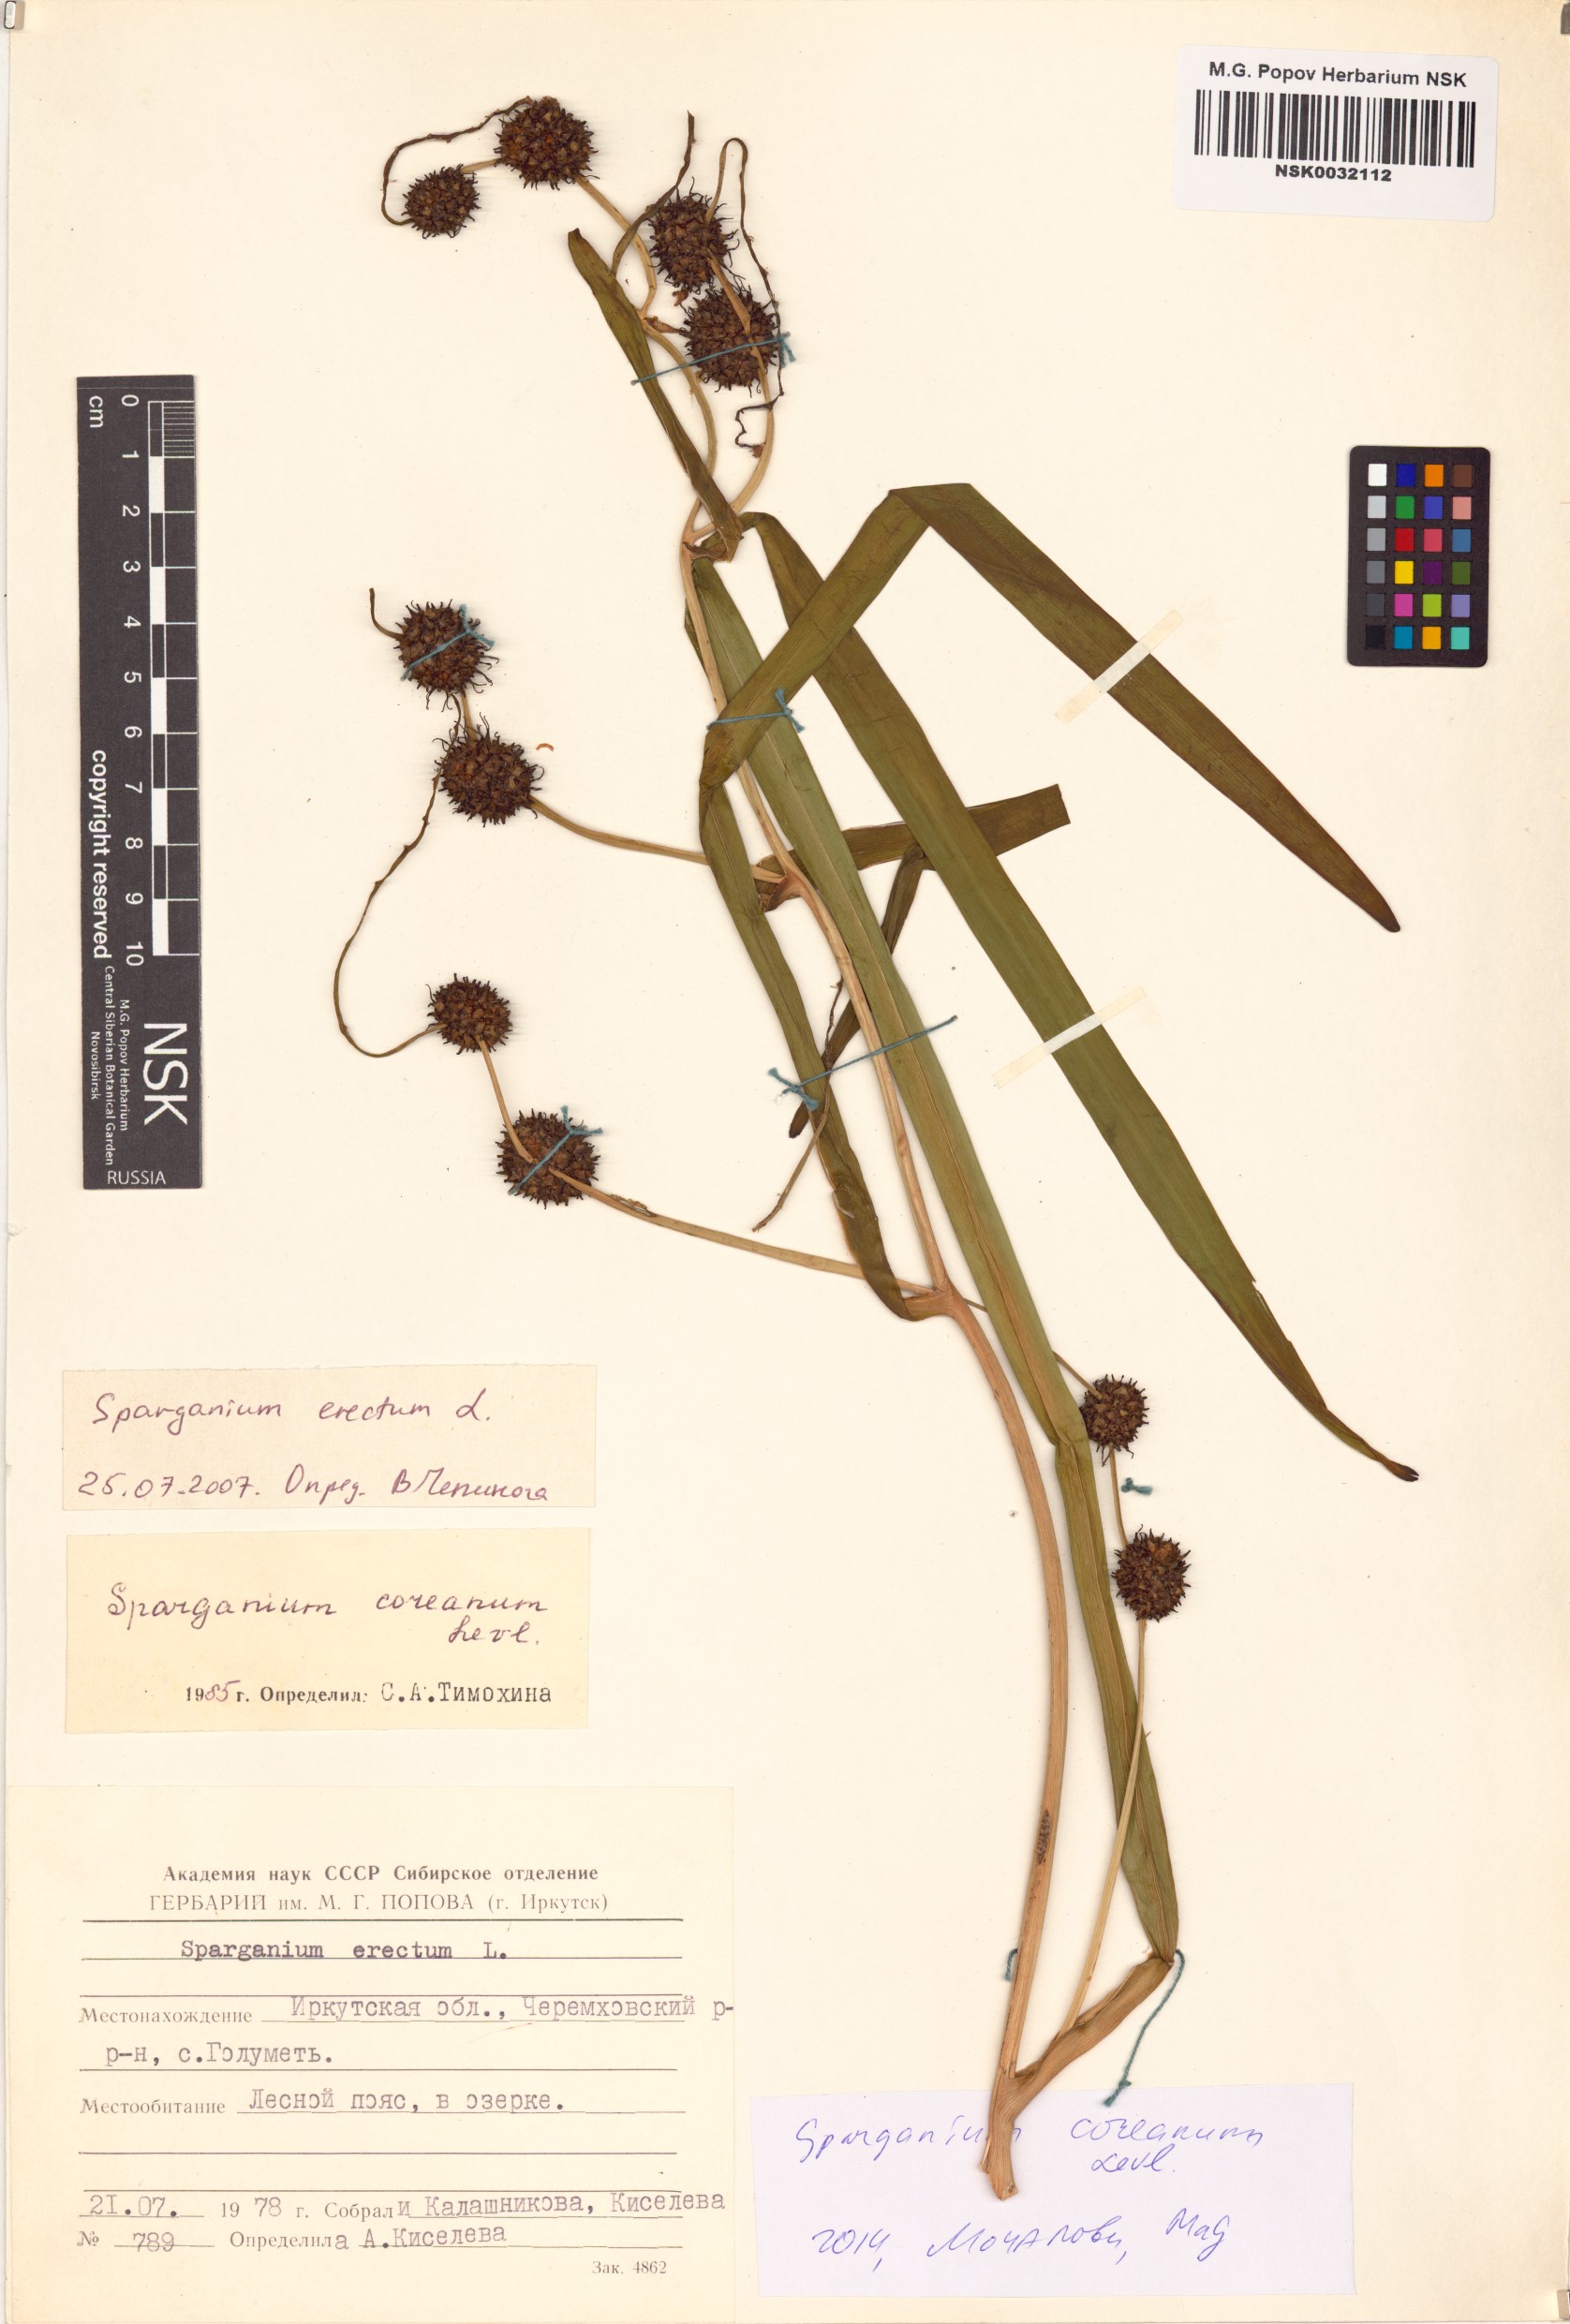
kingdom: Plantae
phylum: Tracheophyta
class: Liliopsida
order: Poales
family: Typhaceae
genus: Sparganium
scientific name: Sparganium eurycarpum
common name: Broad-fruited burreed
